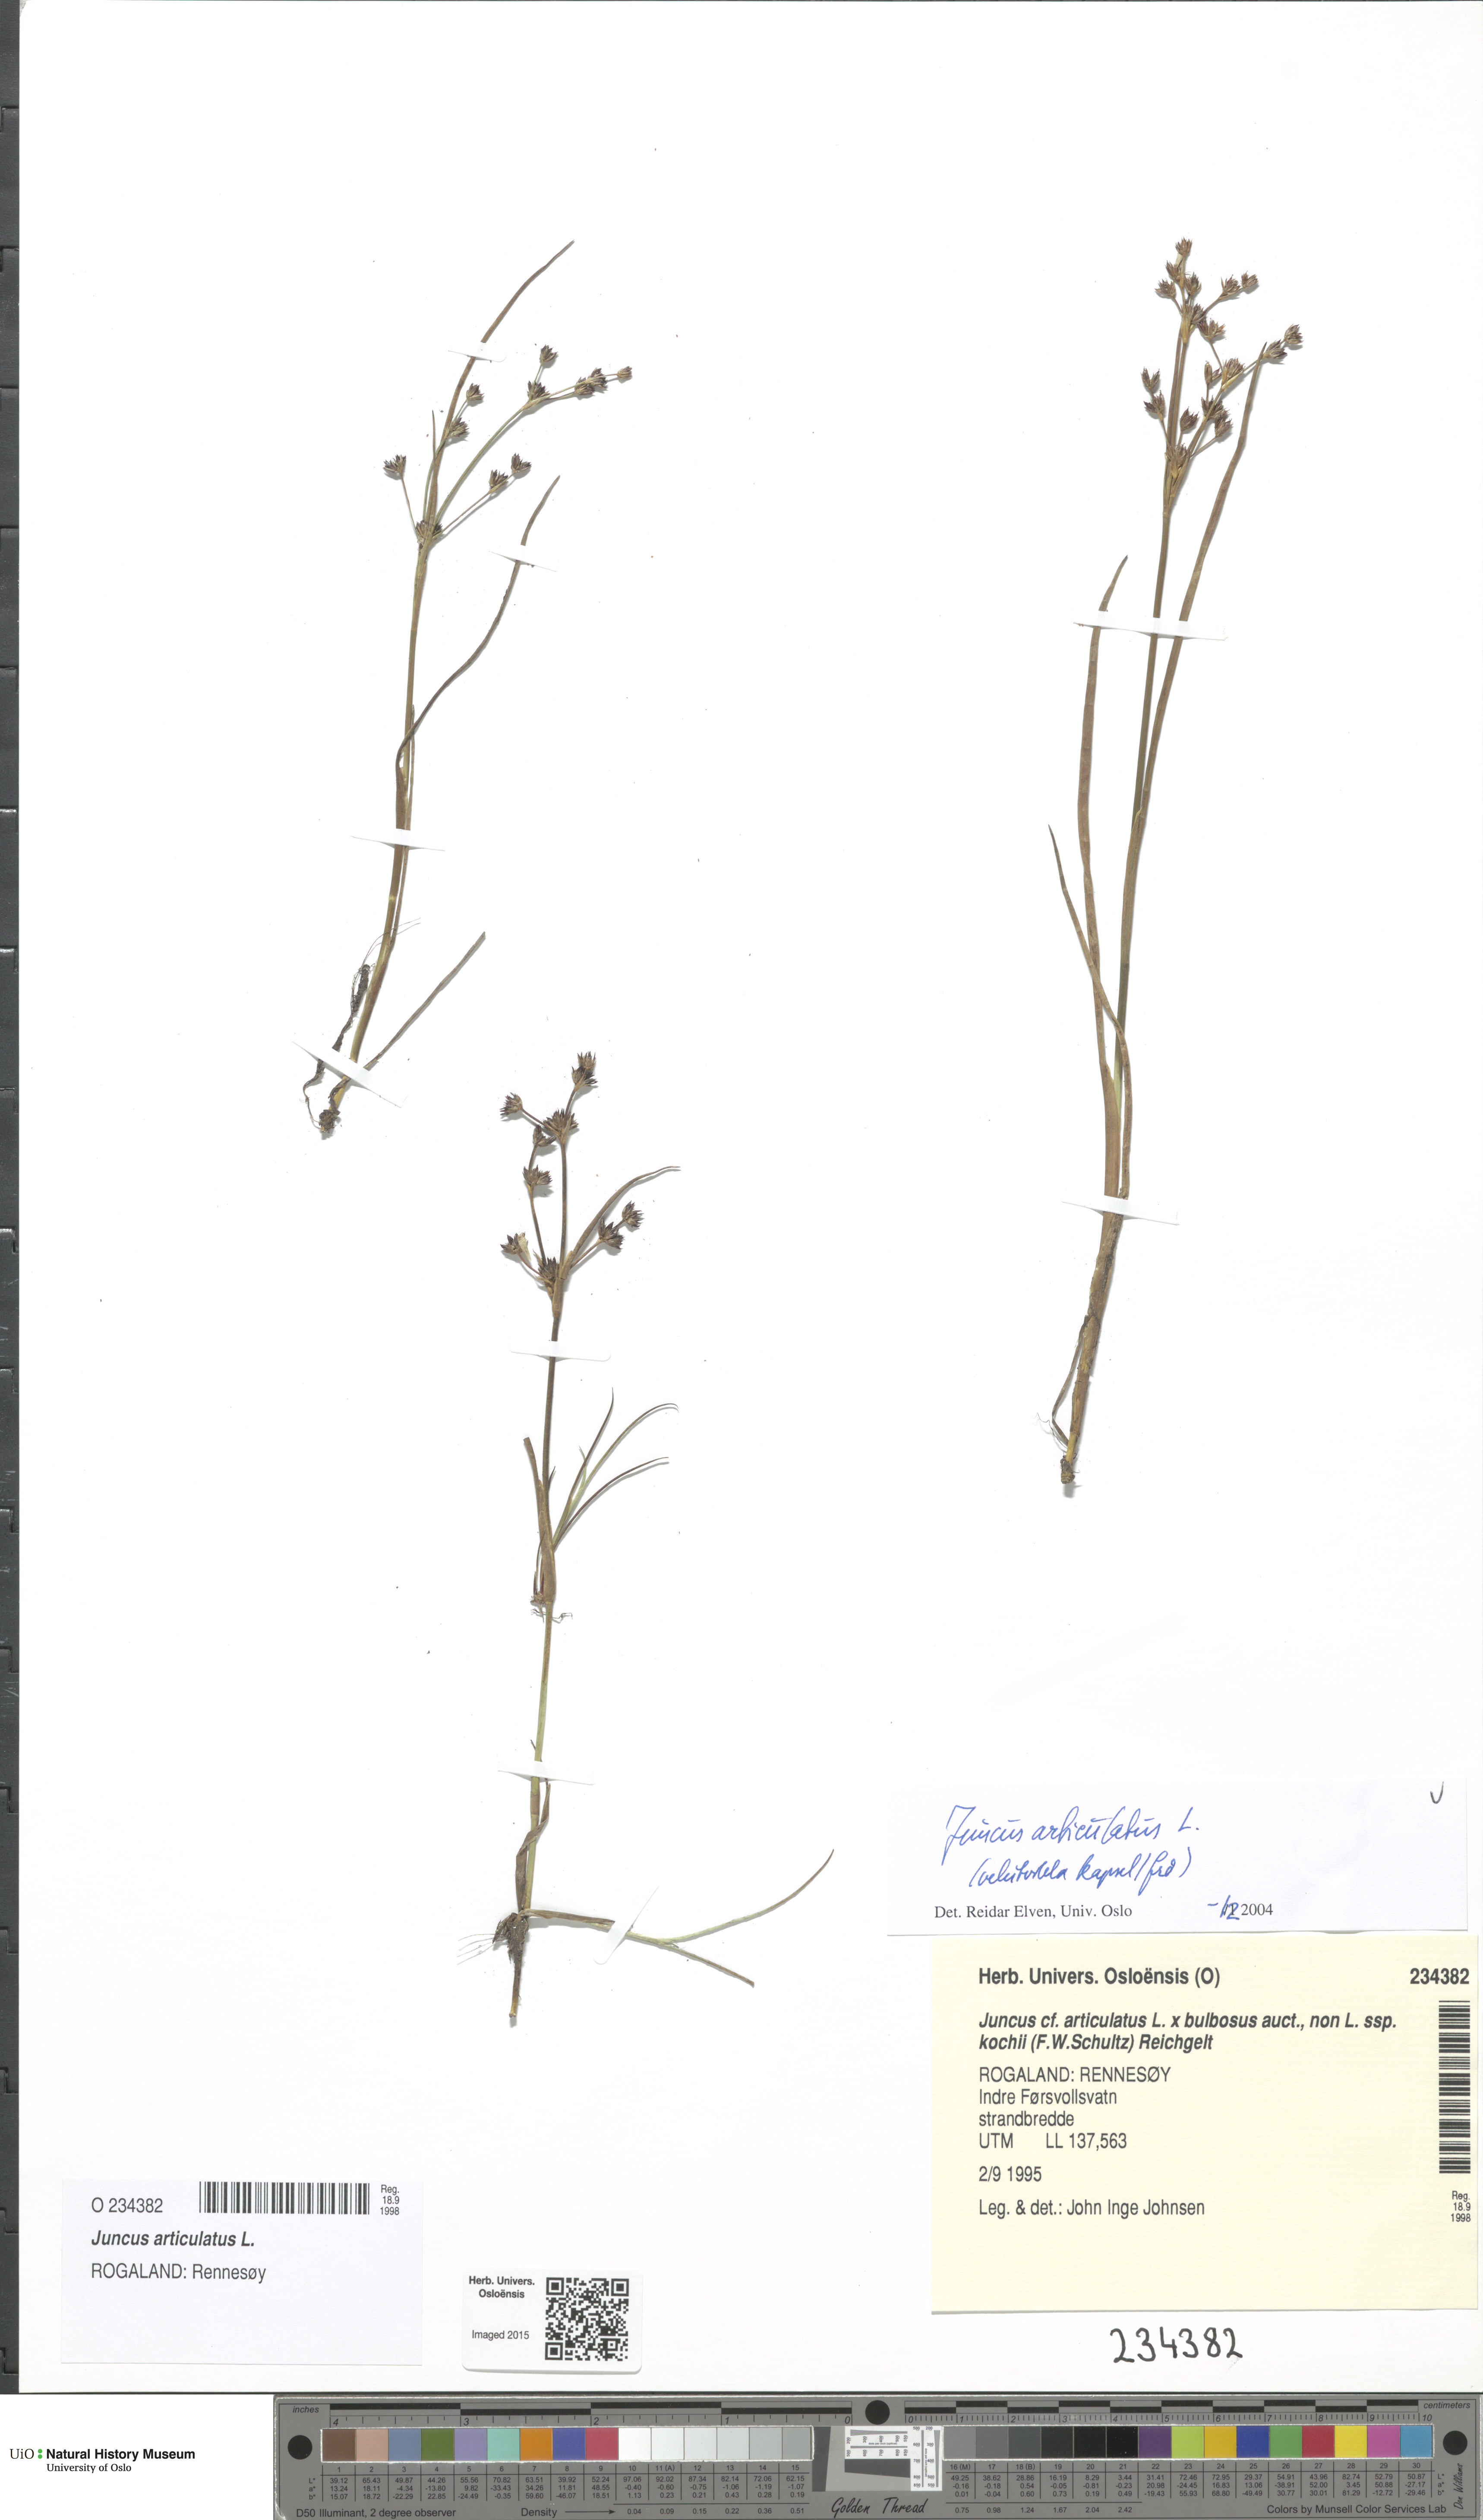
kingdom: Plantae
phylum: Tracheophyta
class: Liliopsida
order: Poales
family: Juncaceae
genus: Juncus
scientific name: Juncus articulatus
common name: Jointed rush
